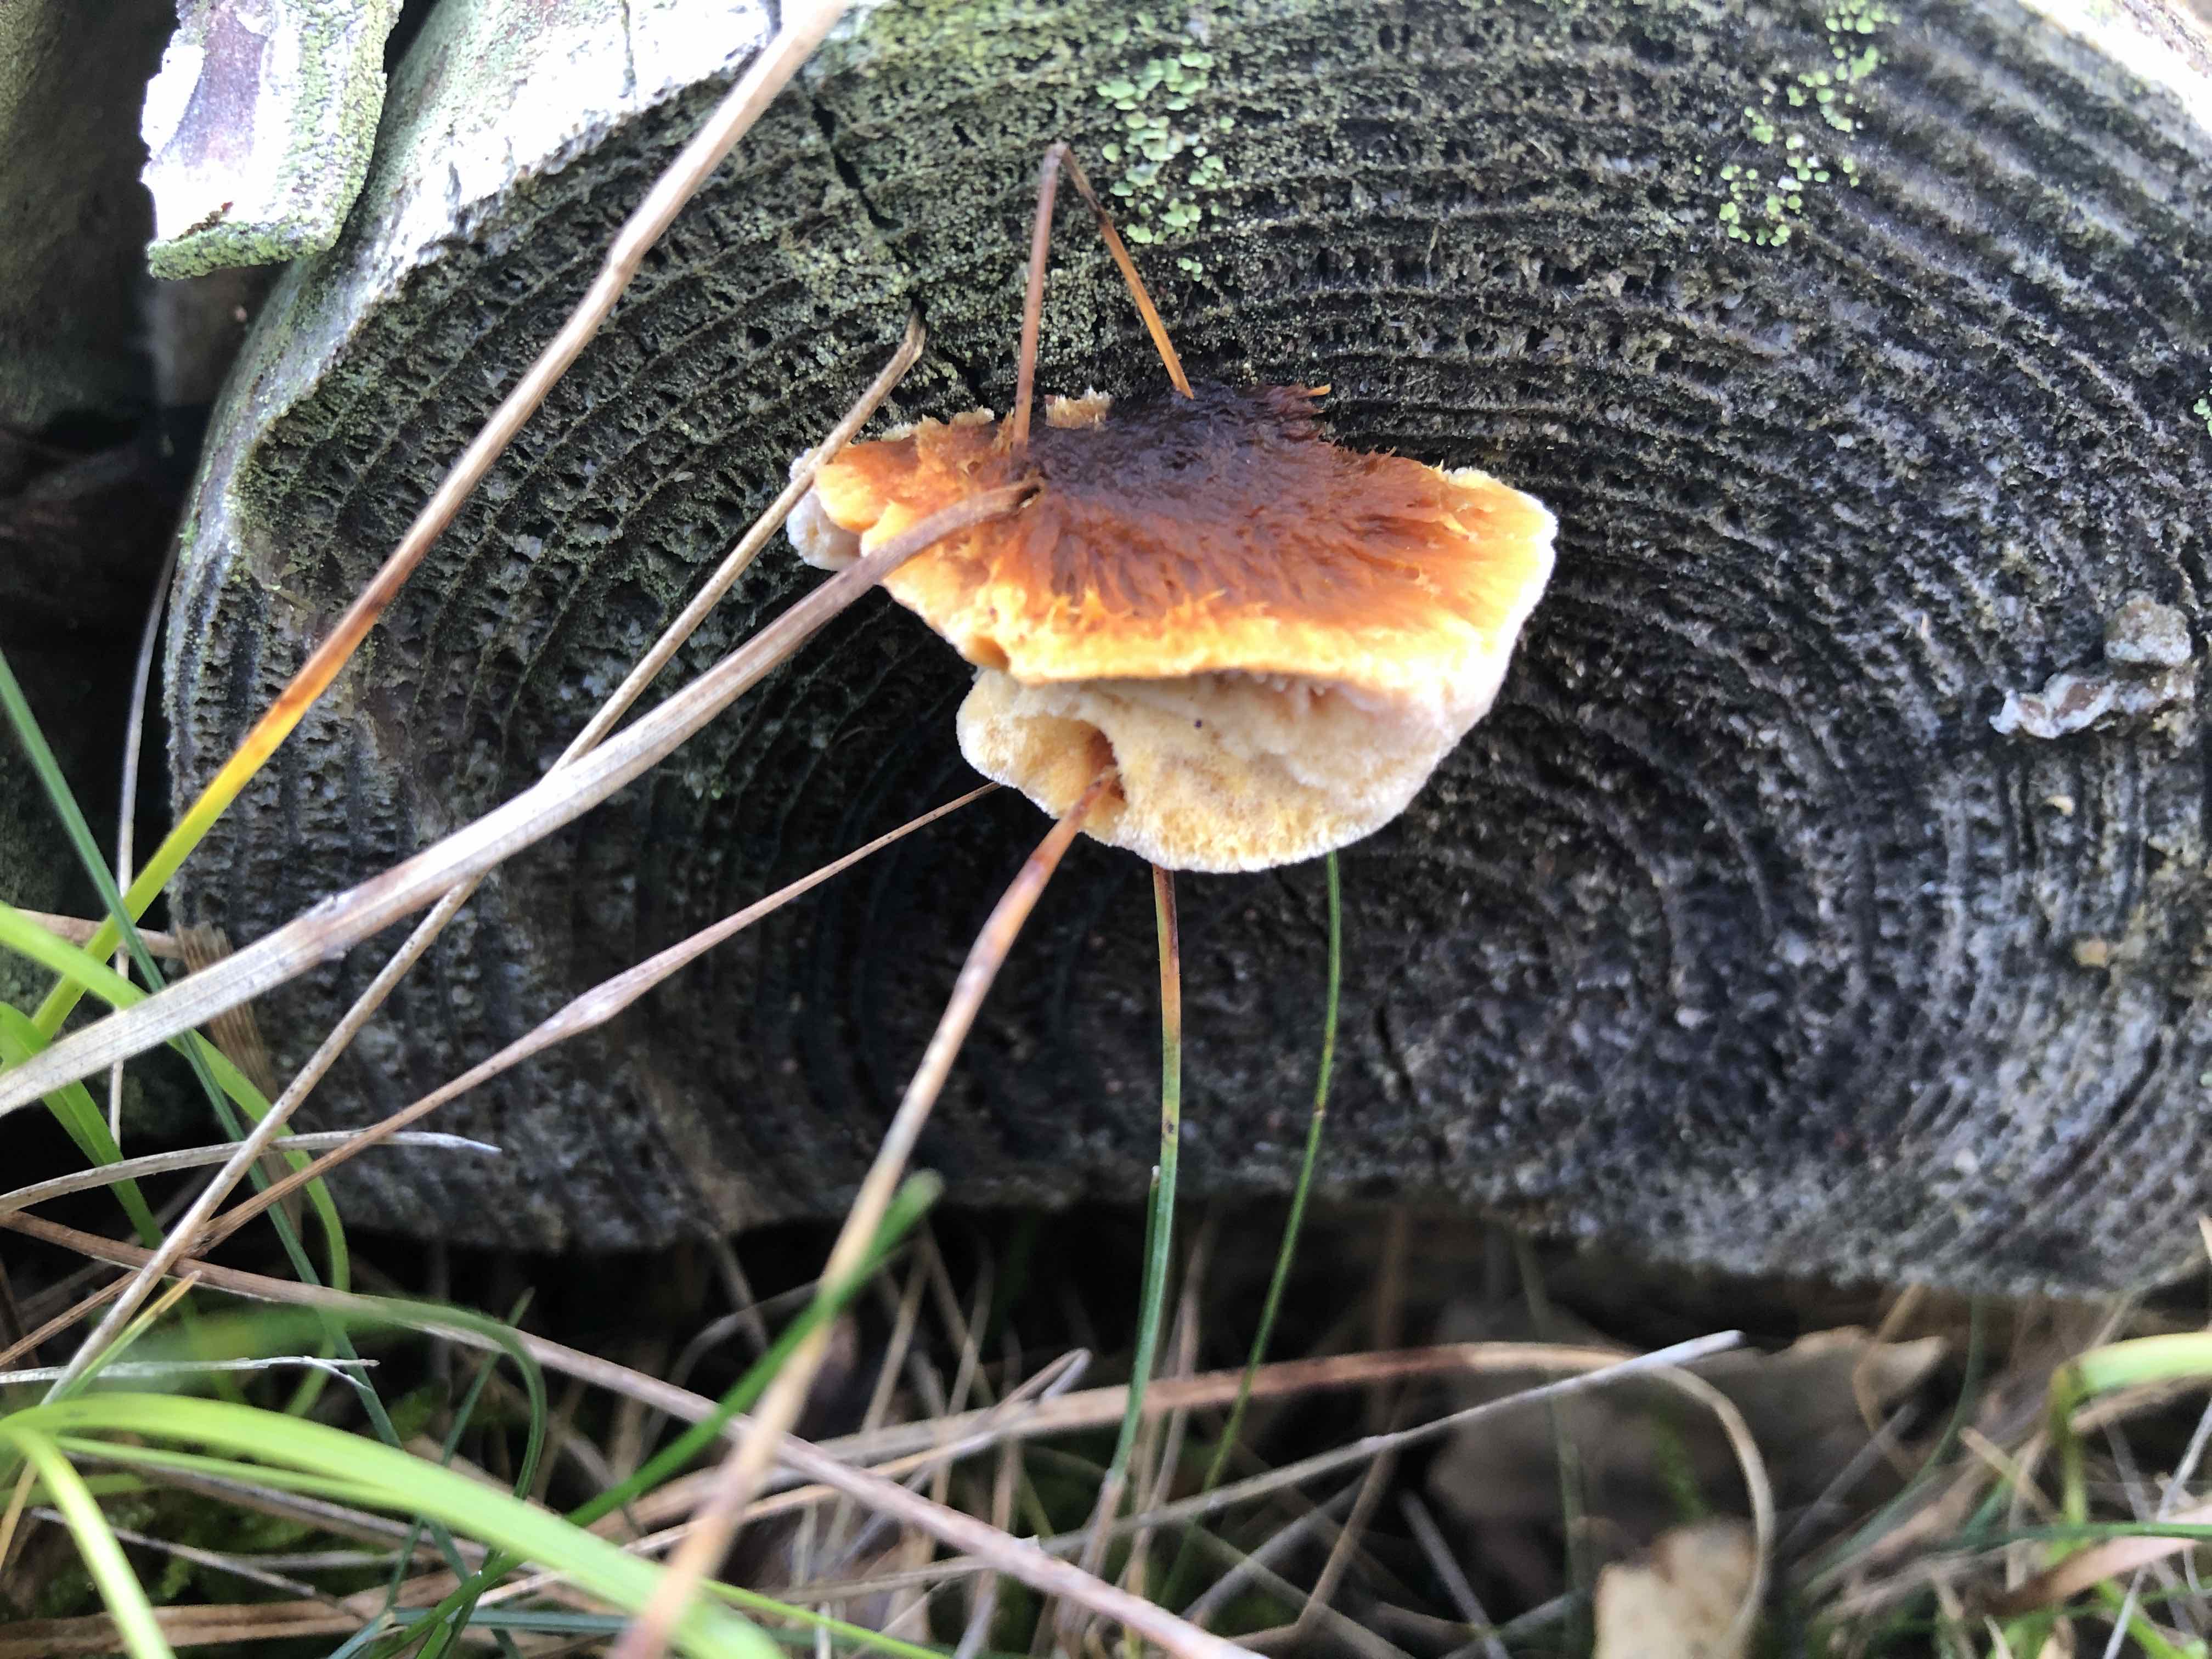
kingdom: Fungi
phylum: Basidiomycota
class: Agaricomycetes
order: Gloeophyllales
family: Gloeophyllaceae
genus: Gloeophyllum
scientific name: Gloeophyllum sepiarium
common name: fyrre-korkhat
